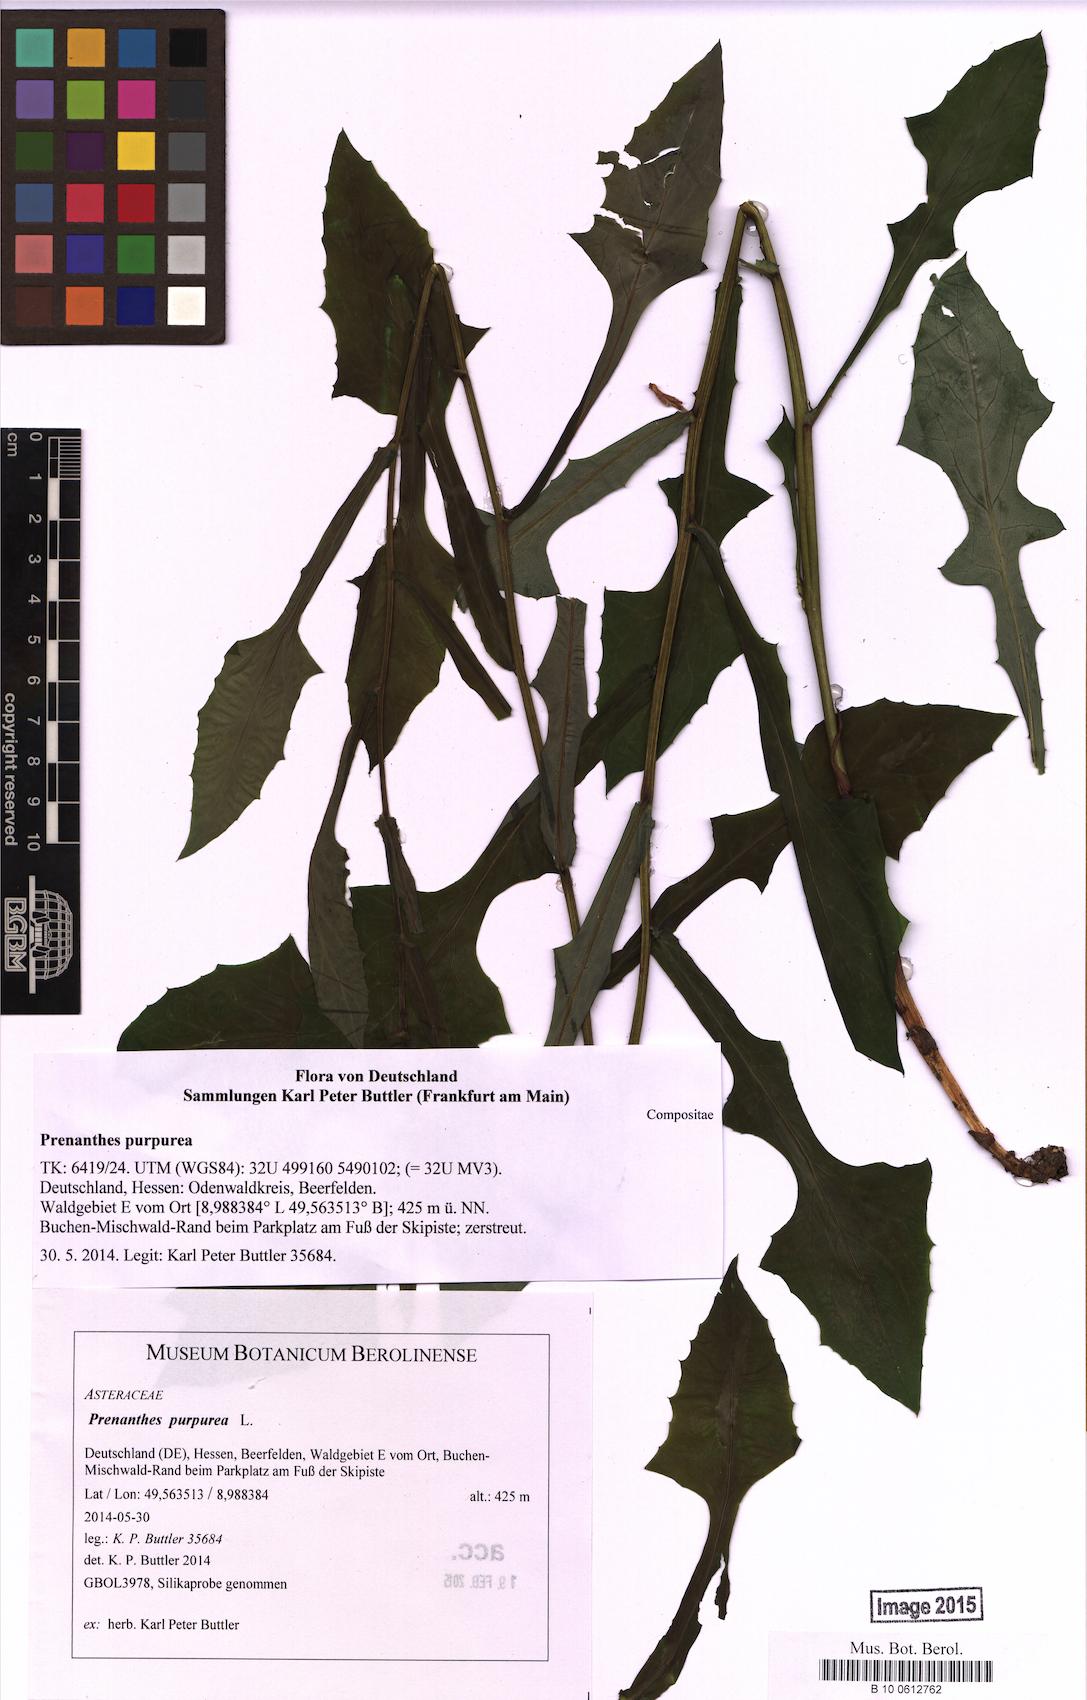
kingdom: Plantae
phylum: Tracheophyta
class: Magnoliopsida
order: Asterales
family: Asteraceae
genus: Prenanthes
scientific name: Prenanthes purpurea
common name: Purple lettuce
